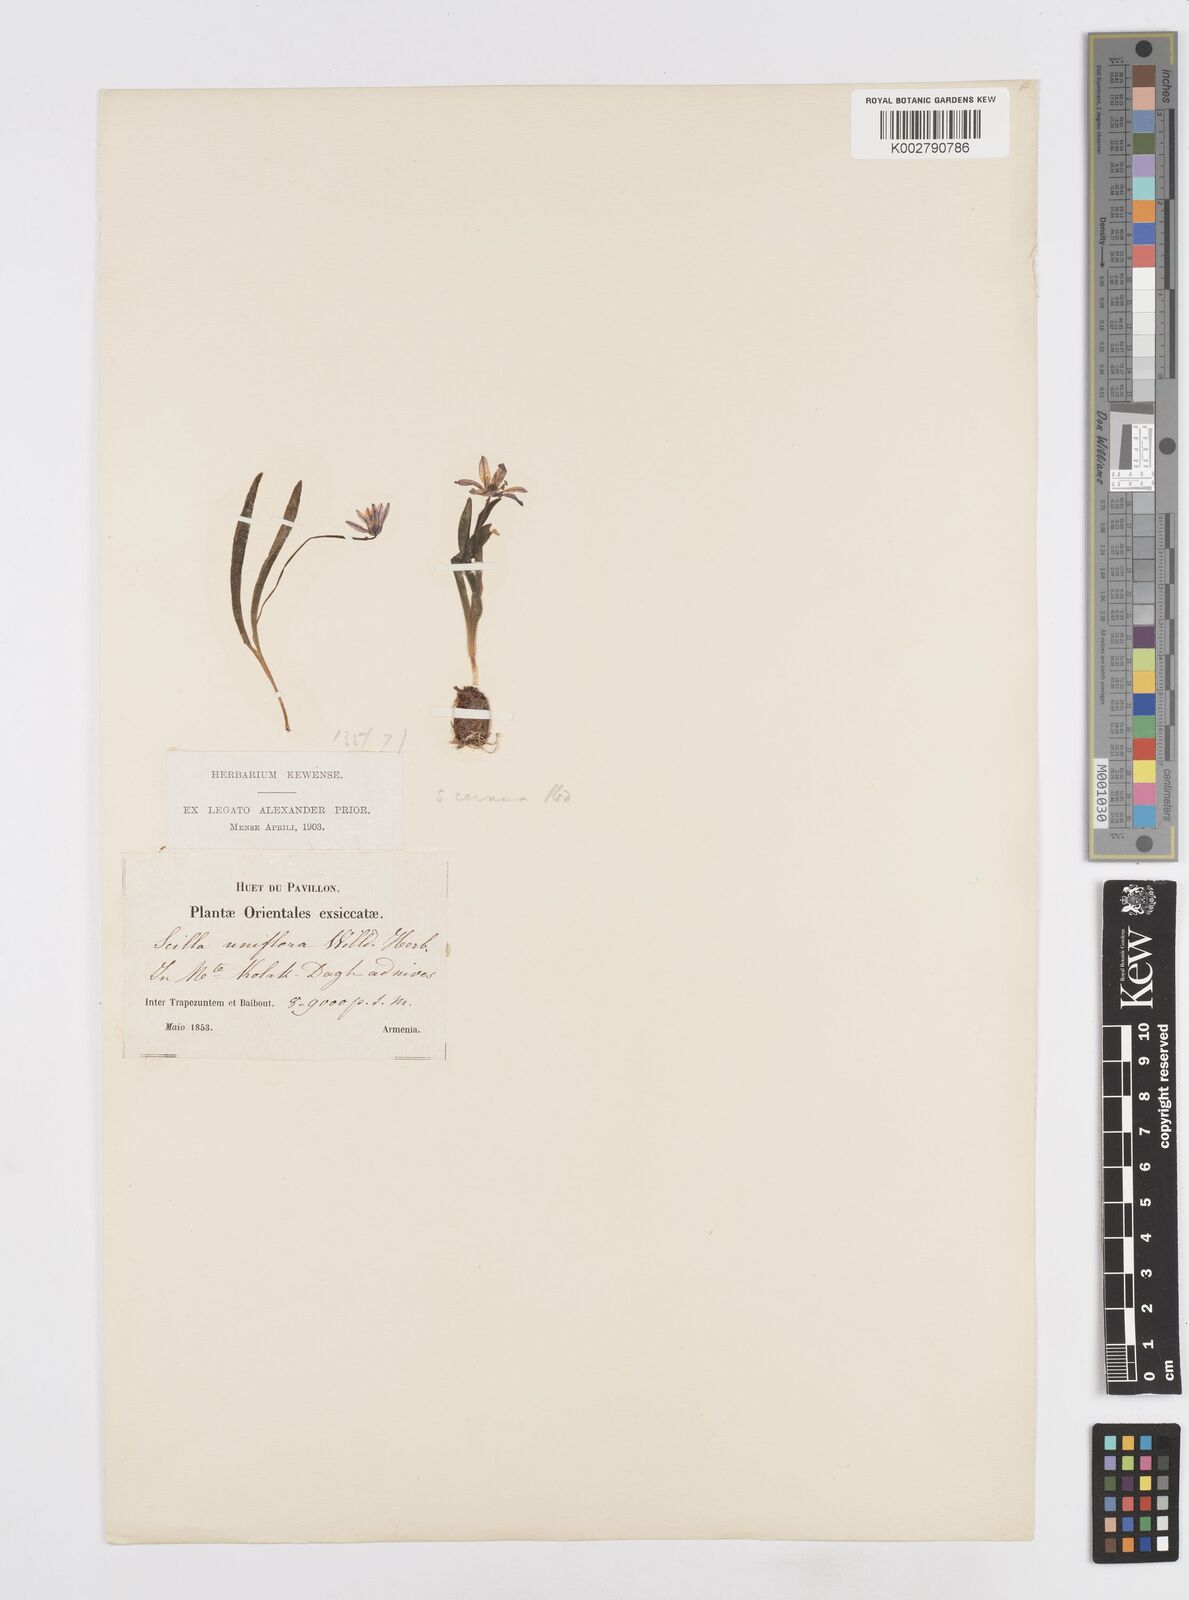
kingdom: Plantae
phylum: Tracheophyta
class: Liliopsida
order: Asparagales
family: Asparagaceae
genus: Scilla
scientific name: Scilla siberica
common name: Siberian squill
